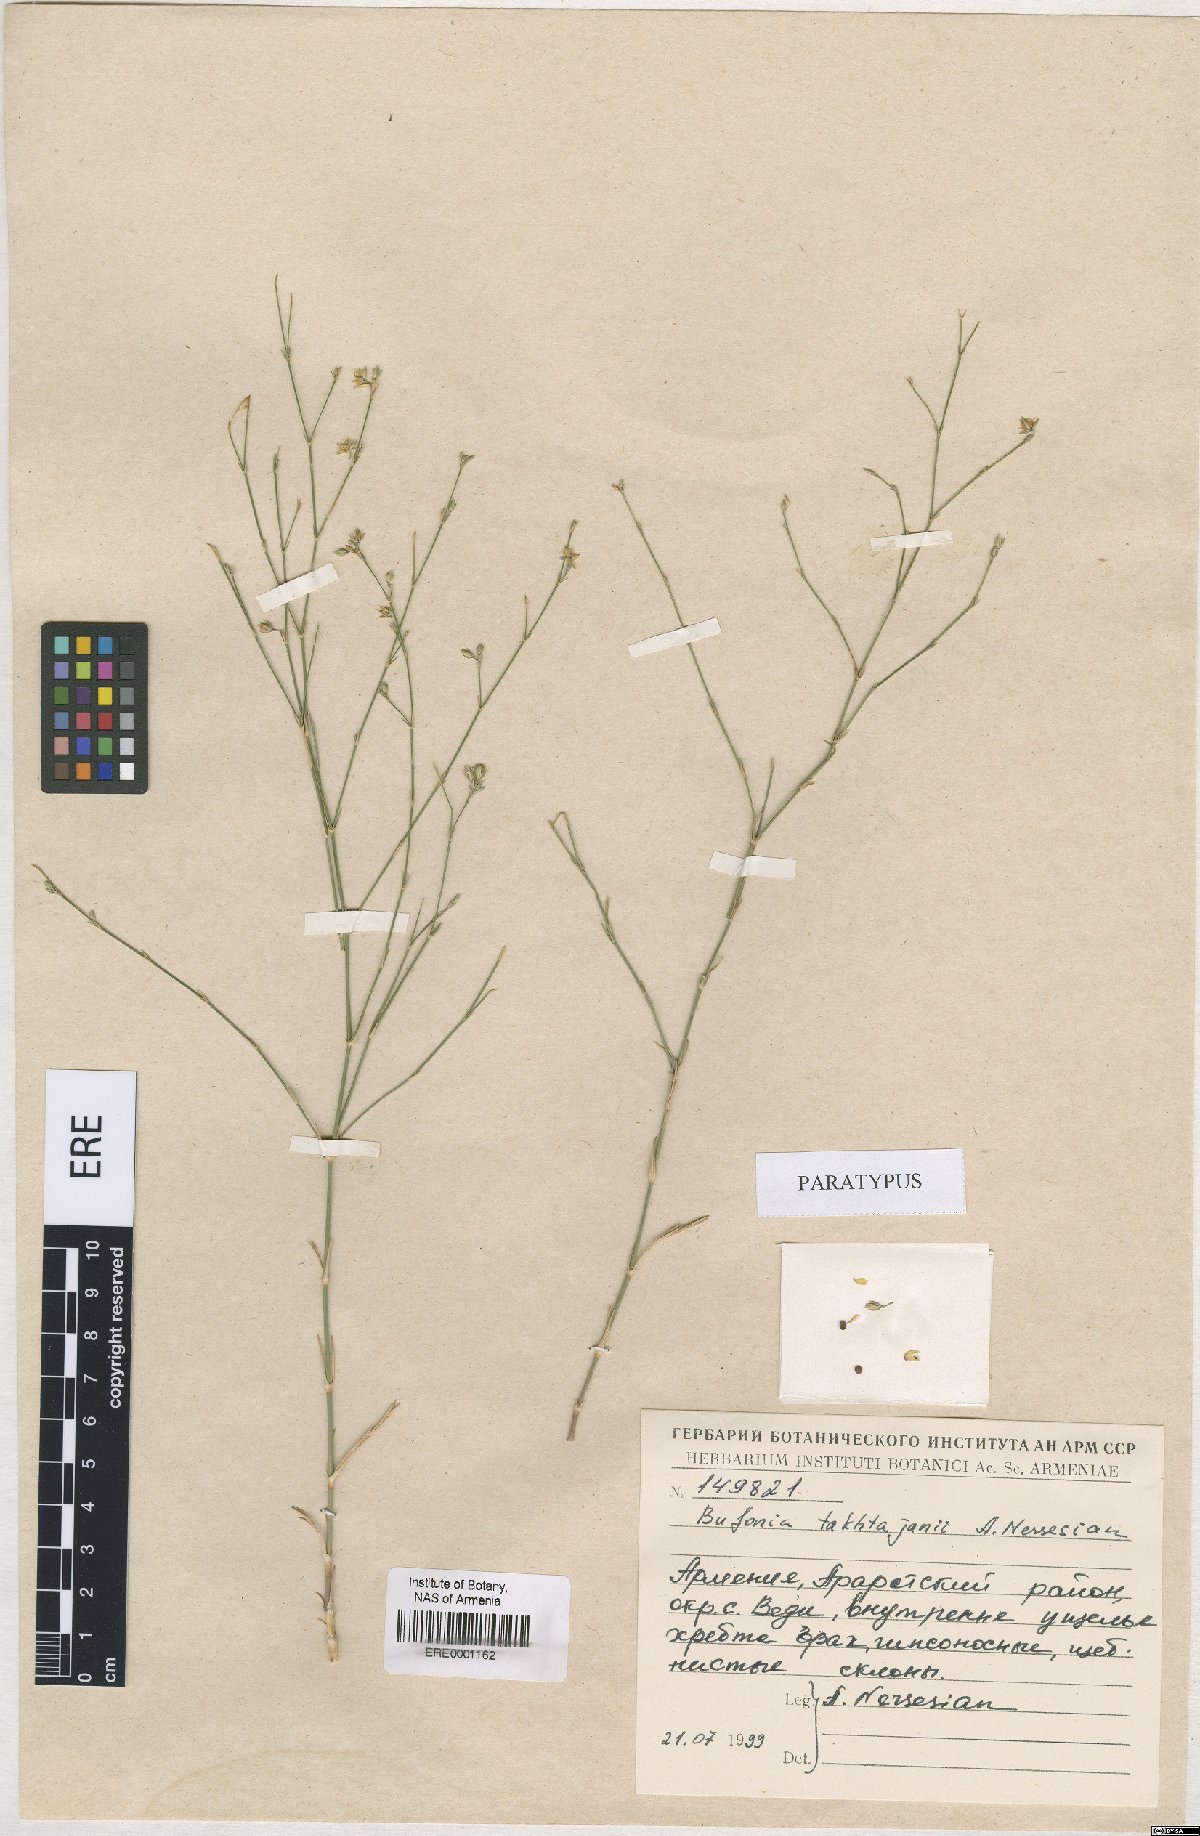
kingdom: Plantae
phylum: Tracheophyta
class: Magnoliopsida
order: Caryophyllales
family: Caryophyllaceae
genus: Bufonia
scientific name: Bufonia takhtajanii
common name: Takhtadjyan's bufonia
